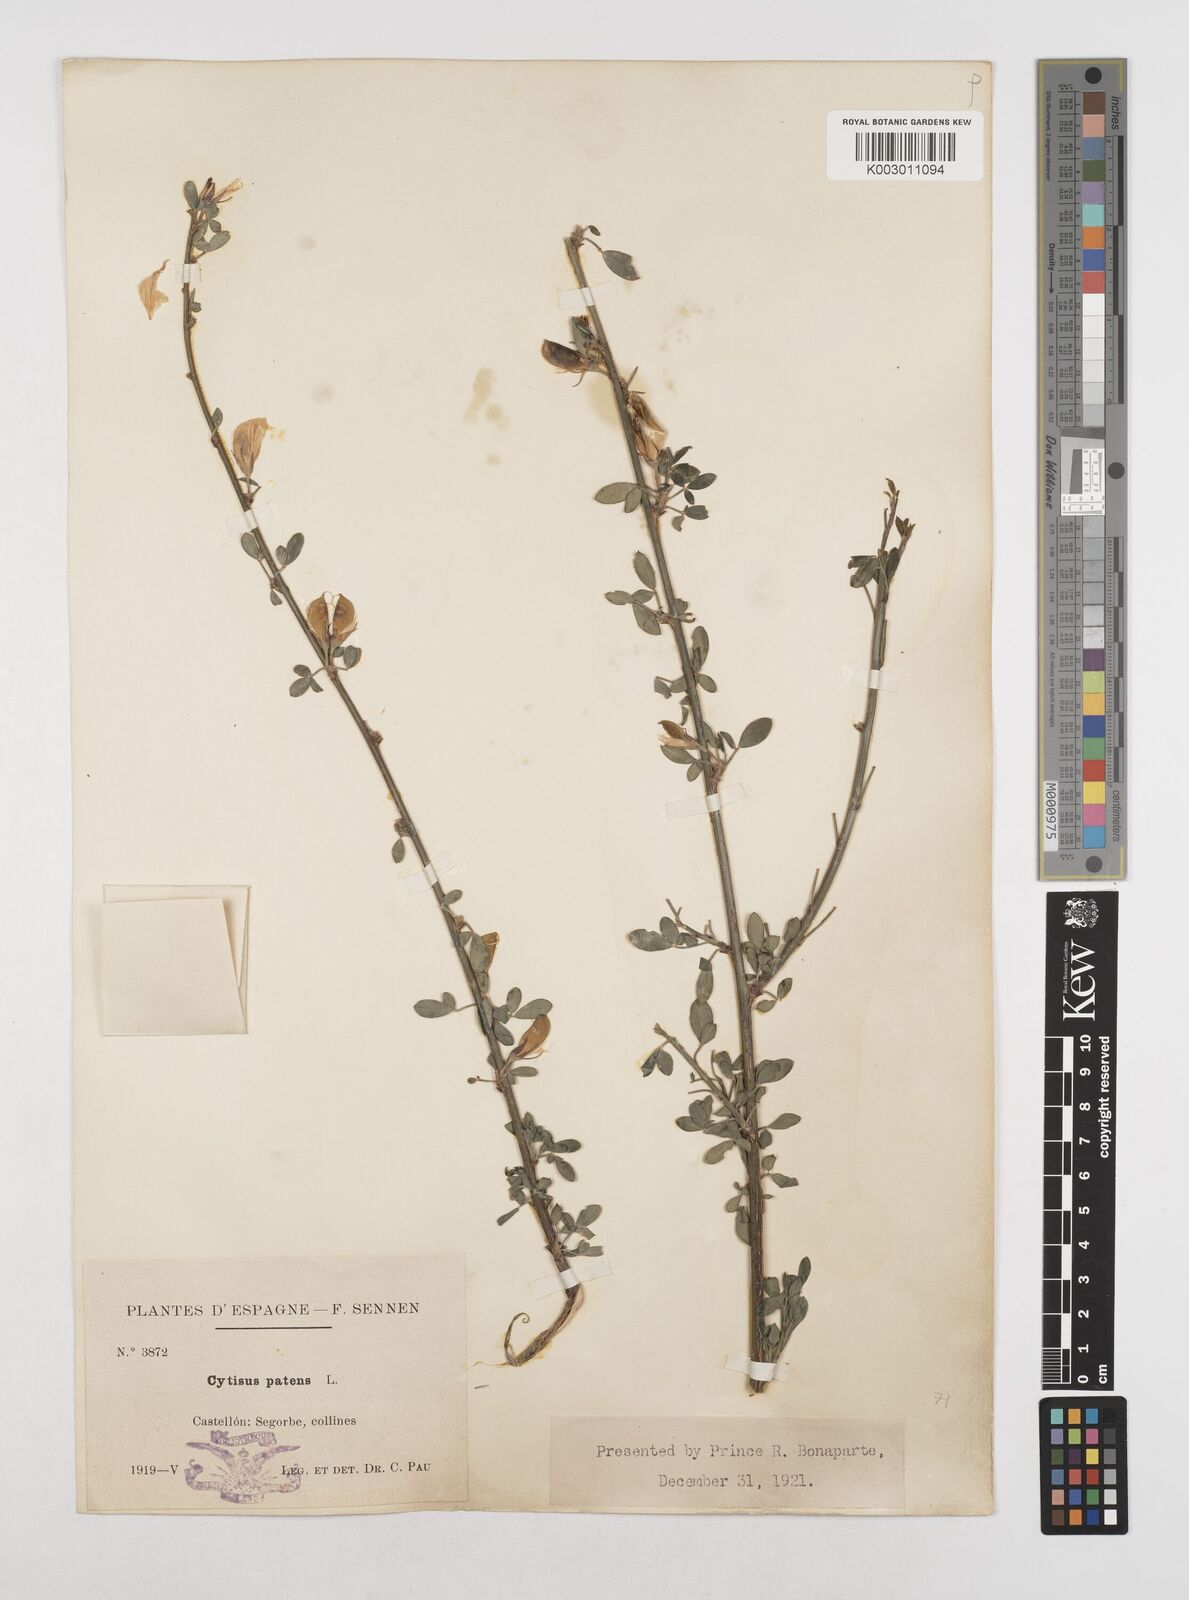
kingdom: Plantae
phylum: Tracheophyta
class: Magnoliopsida
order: Fabales
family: Fabaceae
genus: Cytisus
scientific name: Cytisus scoparius
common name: Scotch broom
